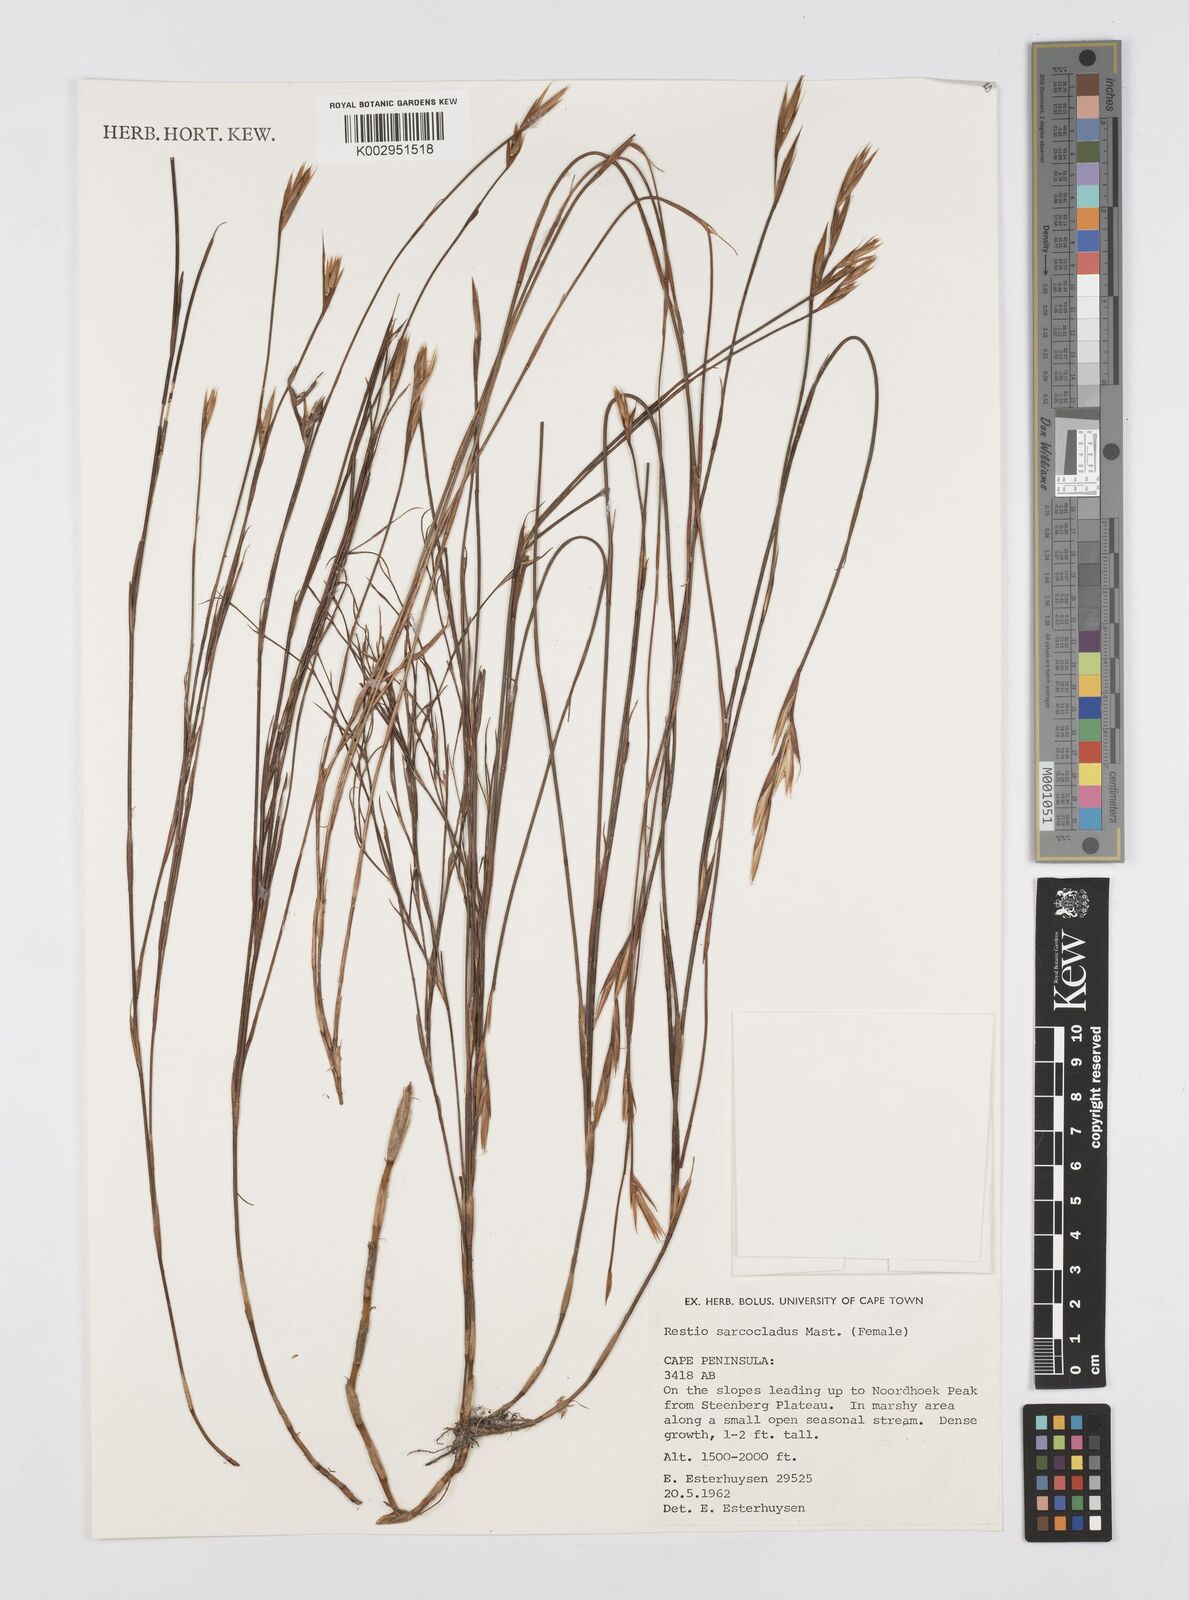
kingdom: Plantae
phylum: Tracheophyta
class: Liliopsida
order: Poales
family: Restionaceae
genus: Restio
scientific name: Restio saroclados
